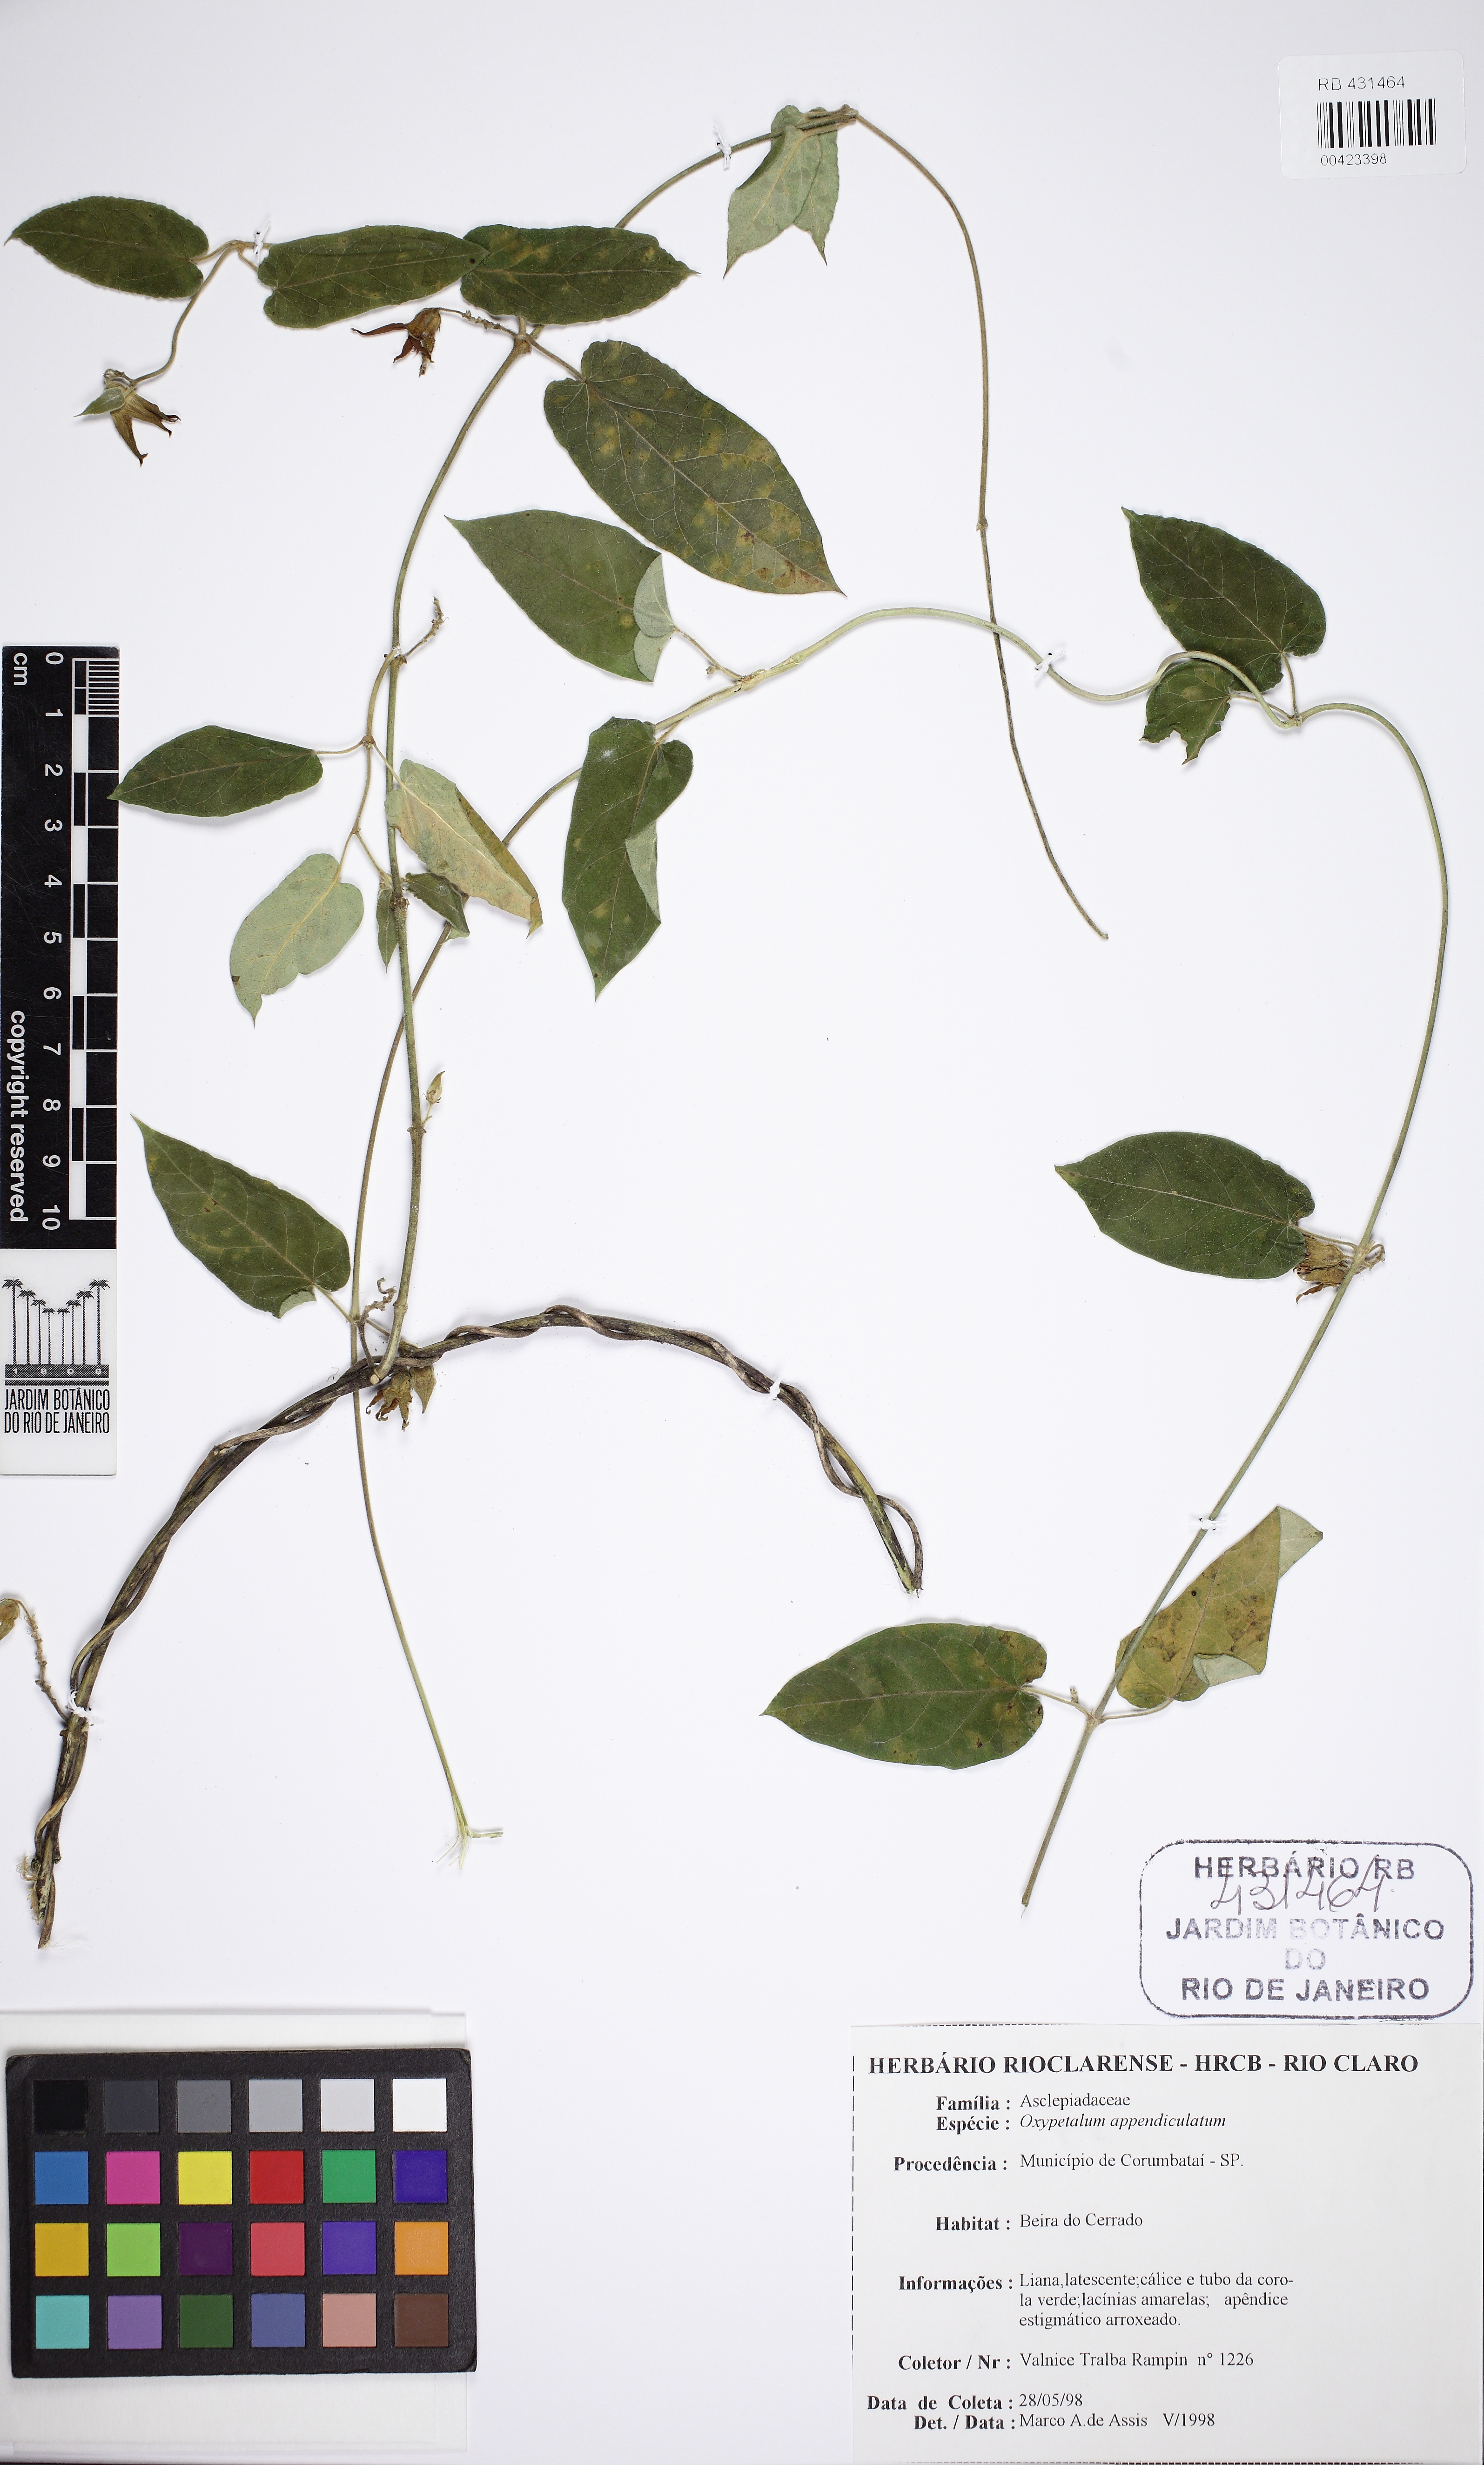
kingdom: Plantae
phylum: Tracheophyta
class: Magnoliopsida
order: Gentianales
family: Apocynaceae
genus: Oxypetalum
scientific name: Oxypetalum appendiculatum
